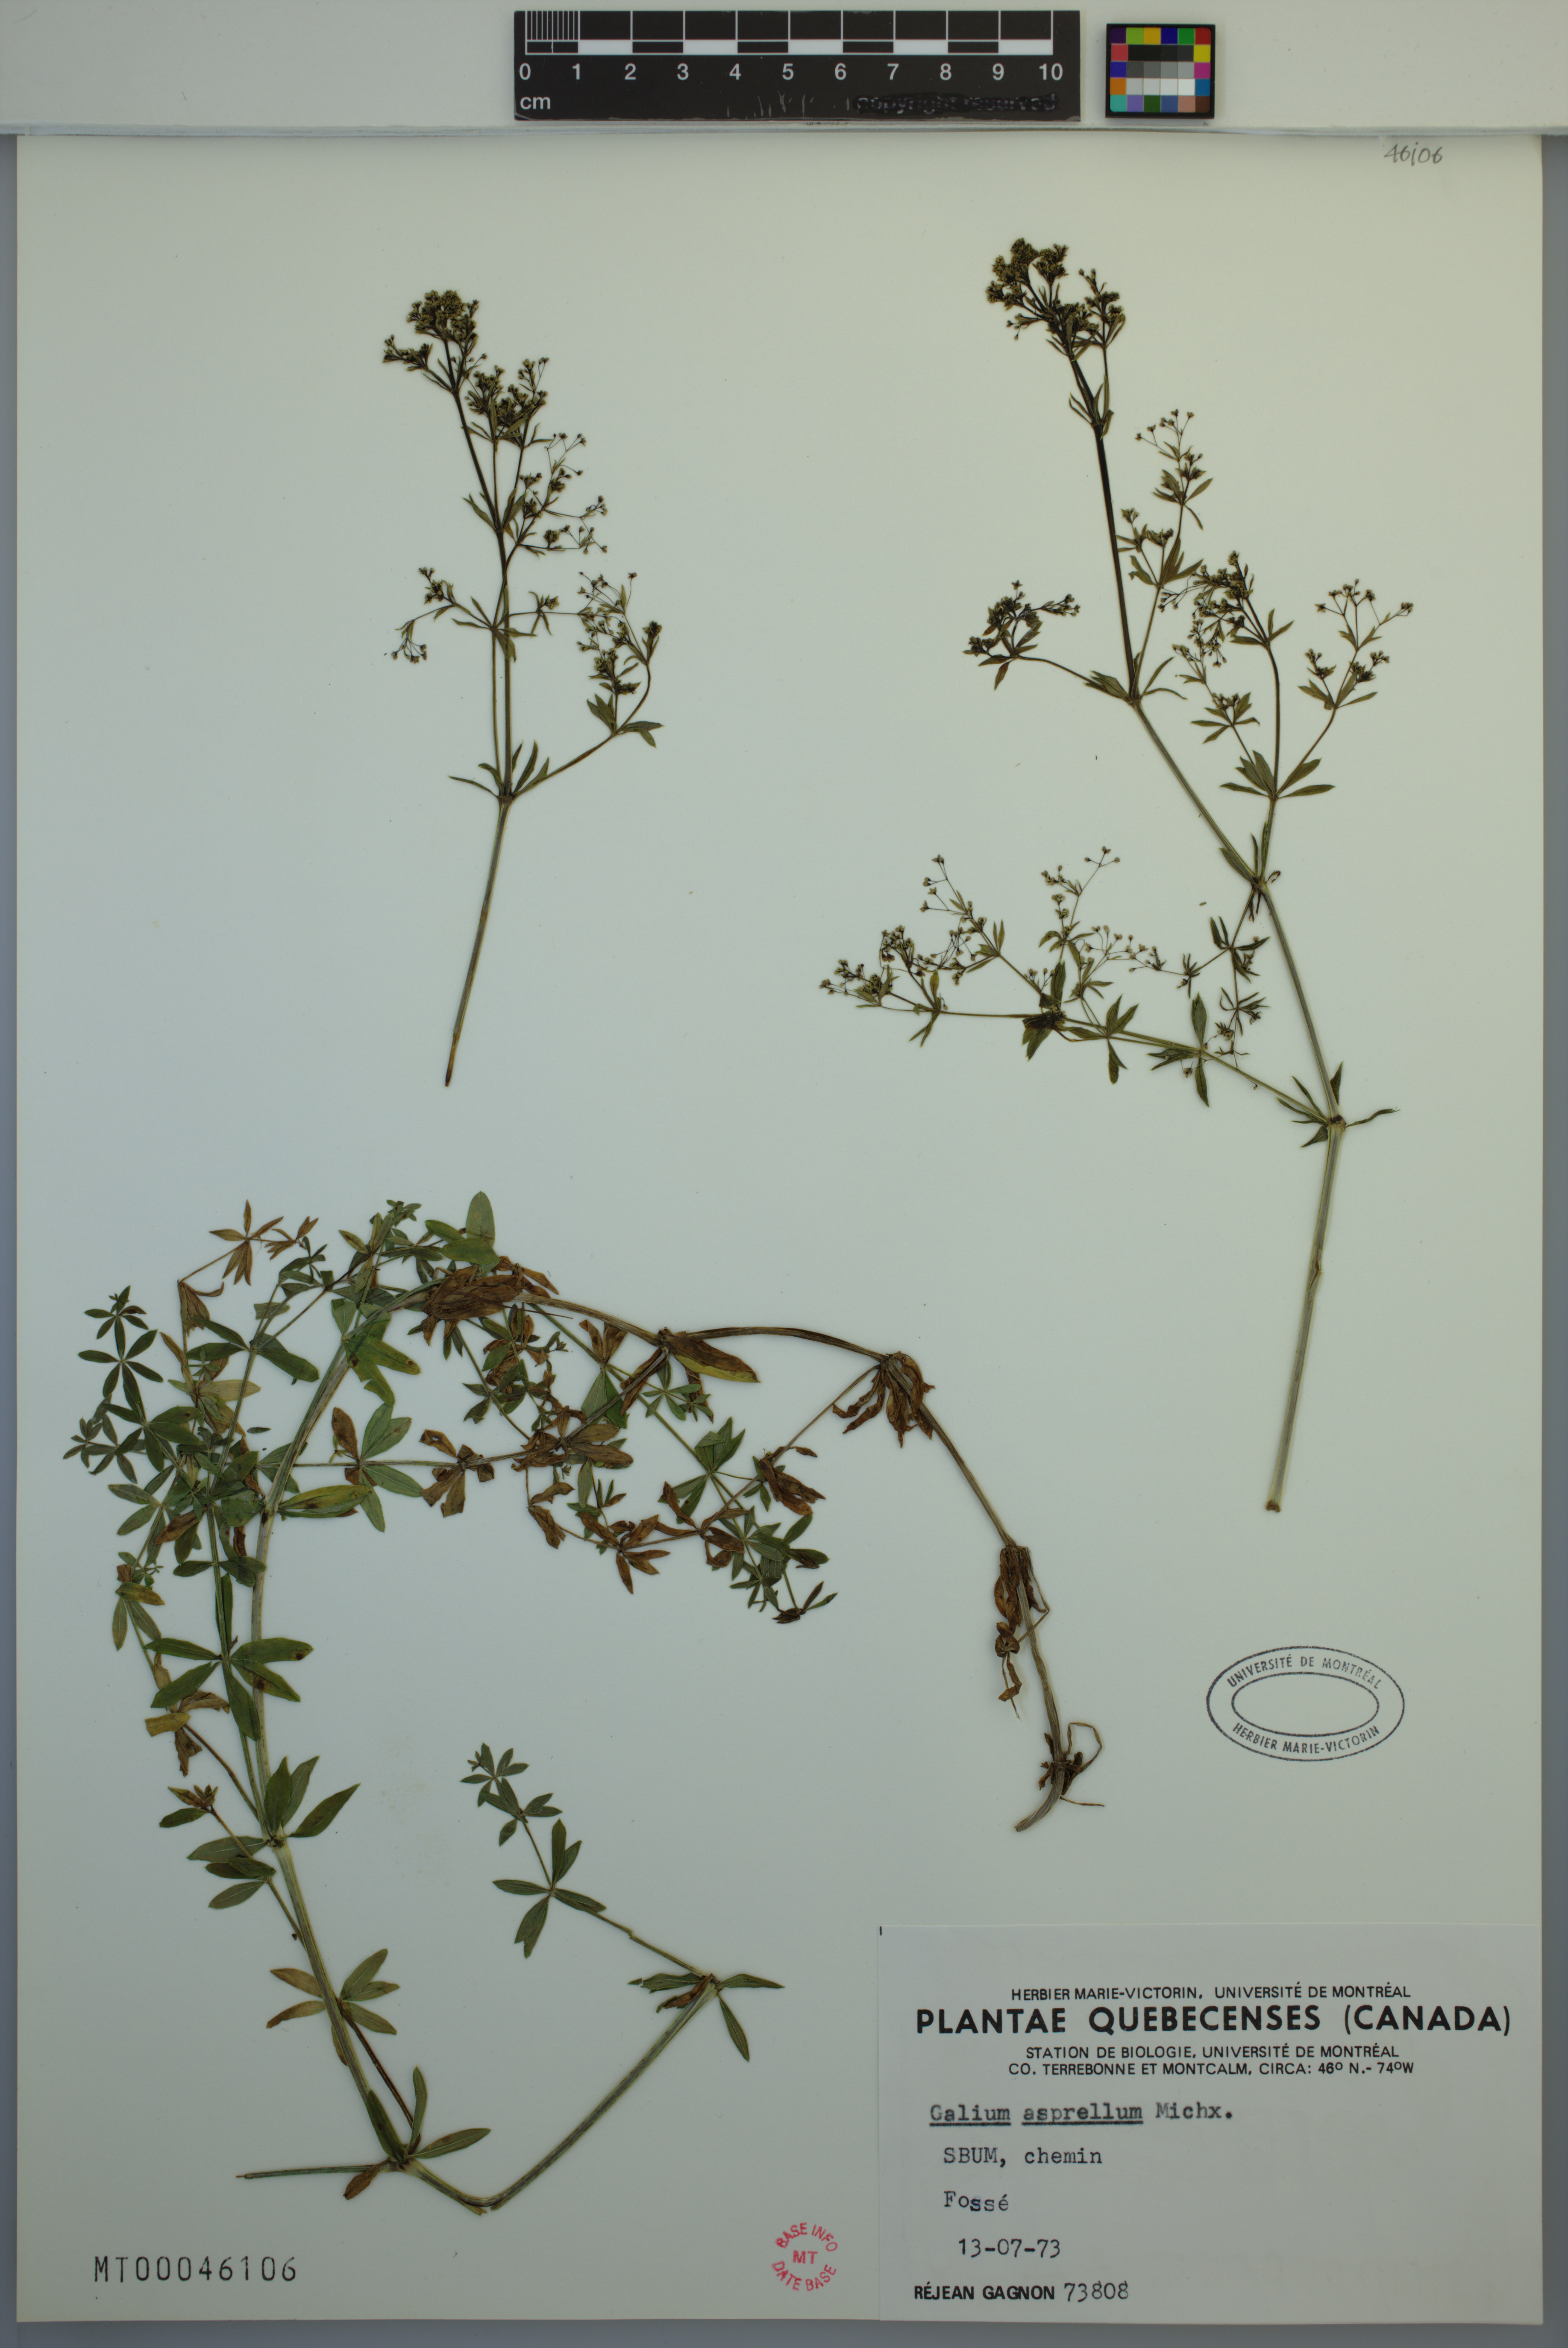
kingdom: Plantae
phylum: Tracheophyta
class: Magnoliopsida
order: Gentianales
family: Rubiaceae
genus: Galium
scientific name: Galium asprellum
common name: Rough bedstraw
